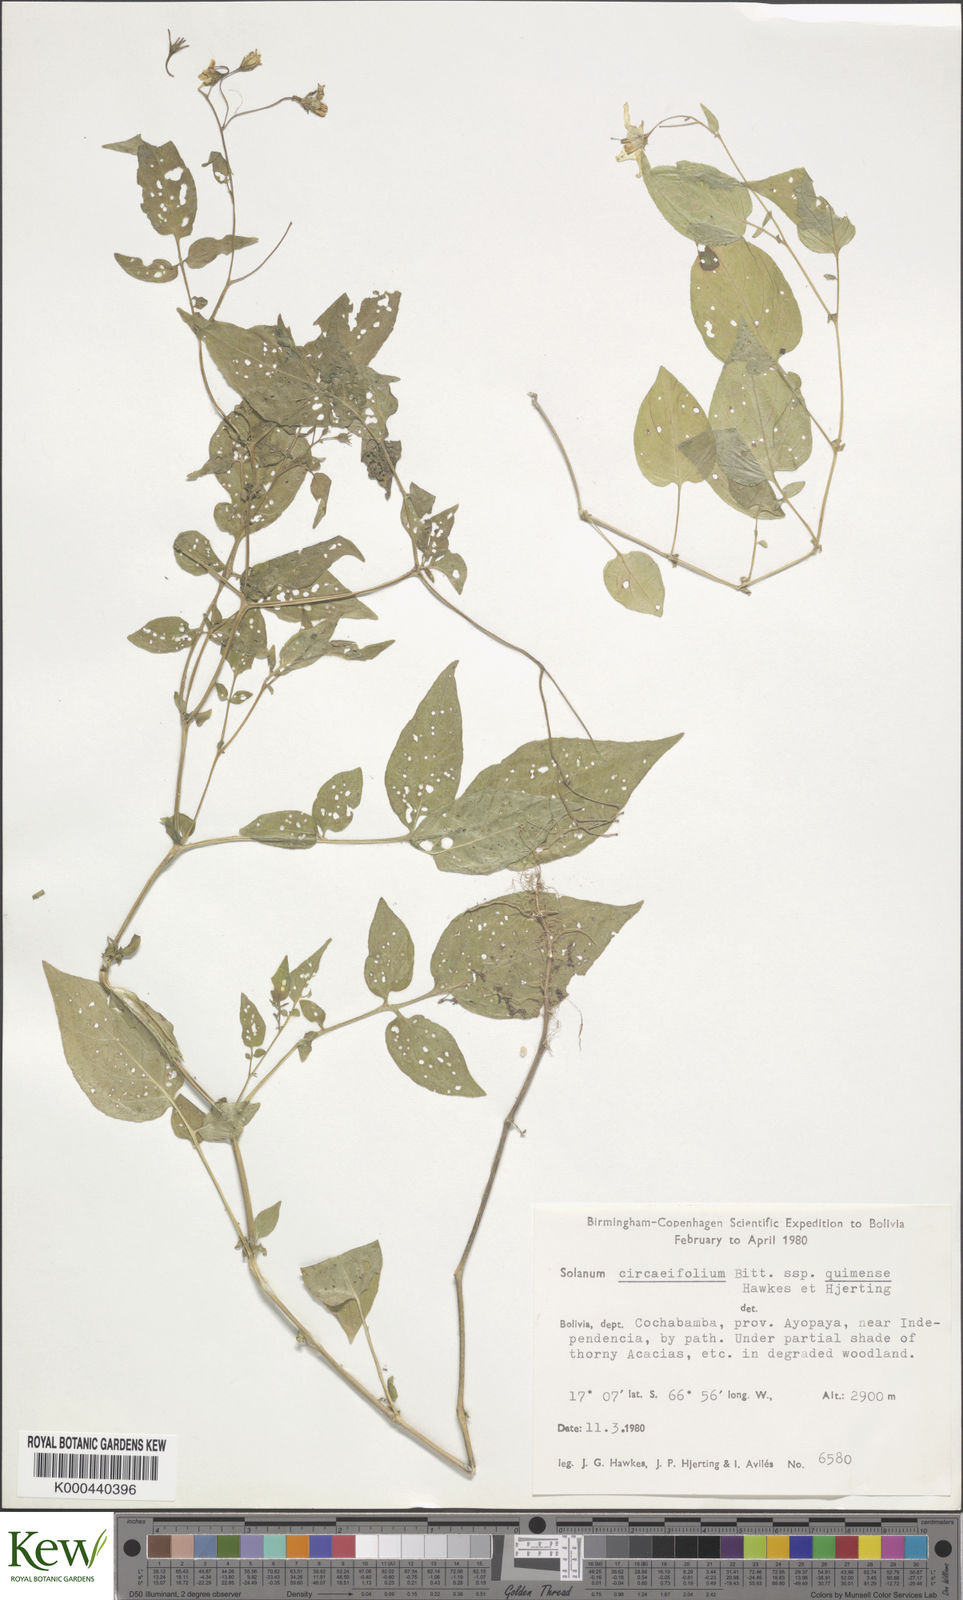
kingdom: Plantae
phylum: Tracheophyta
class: Magnoliopsida
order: Solanales
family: Solanaceae
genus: Solanum
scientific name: Solanum stipuloideum
